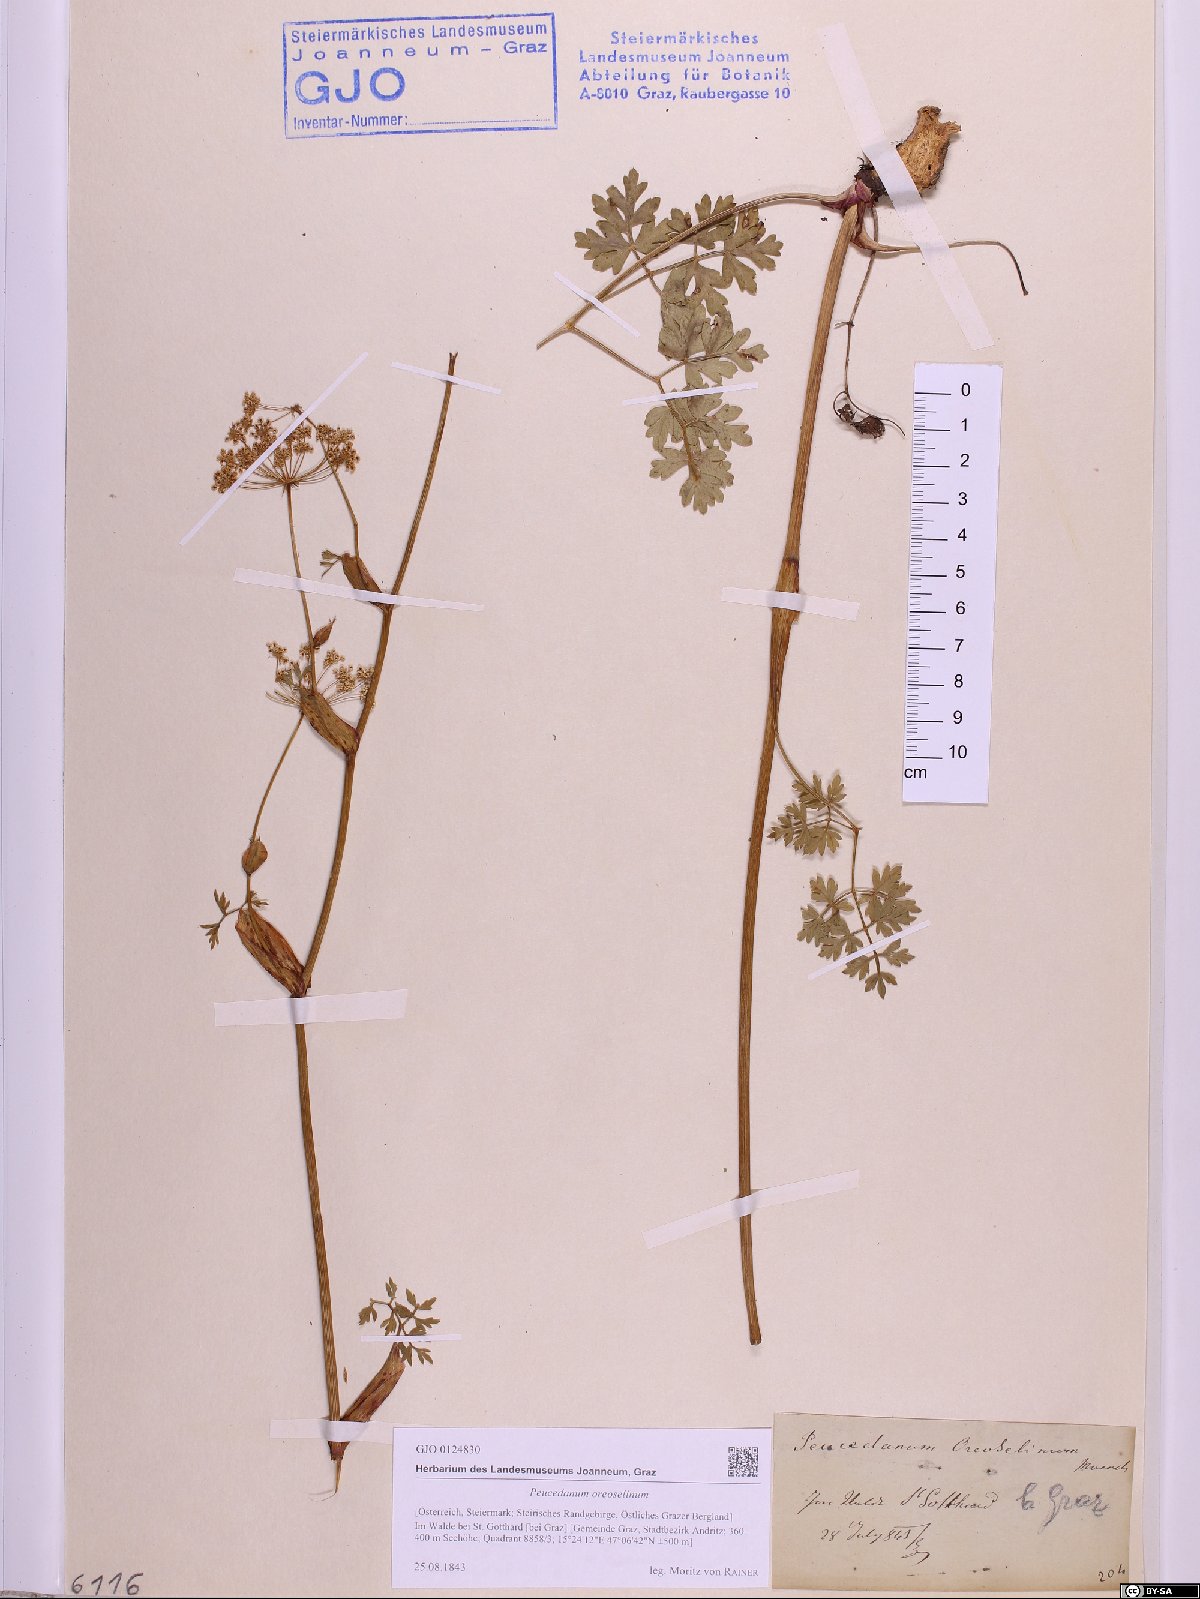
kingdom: Plantae
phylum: Tracheophyta
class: Magnoliopsida
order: Apiales
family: Apiaceae
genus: Oreoselinum
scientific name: Oreoselinum nigrum
